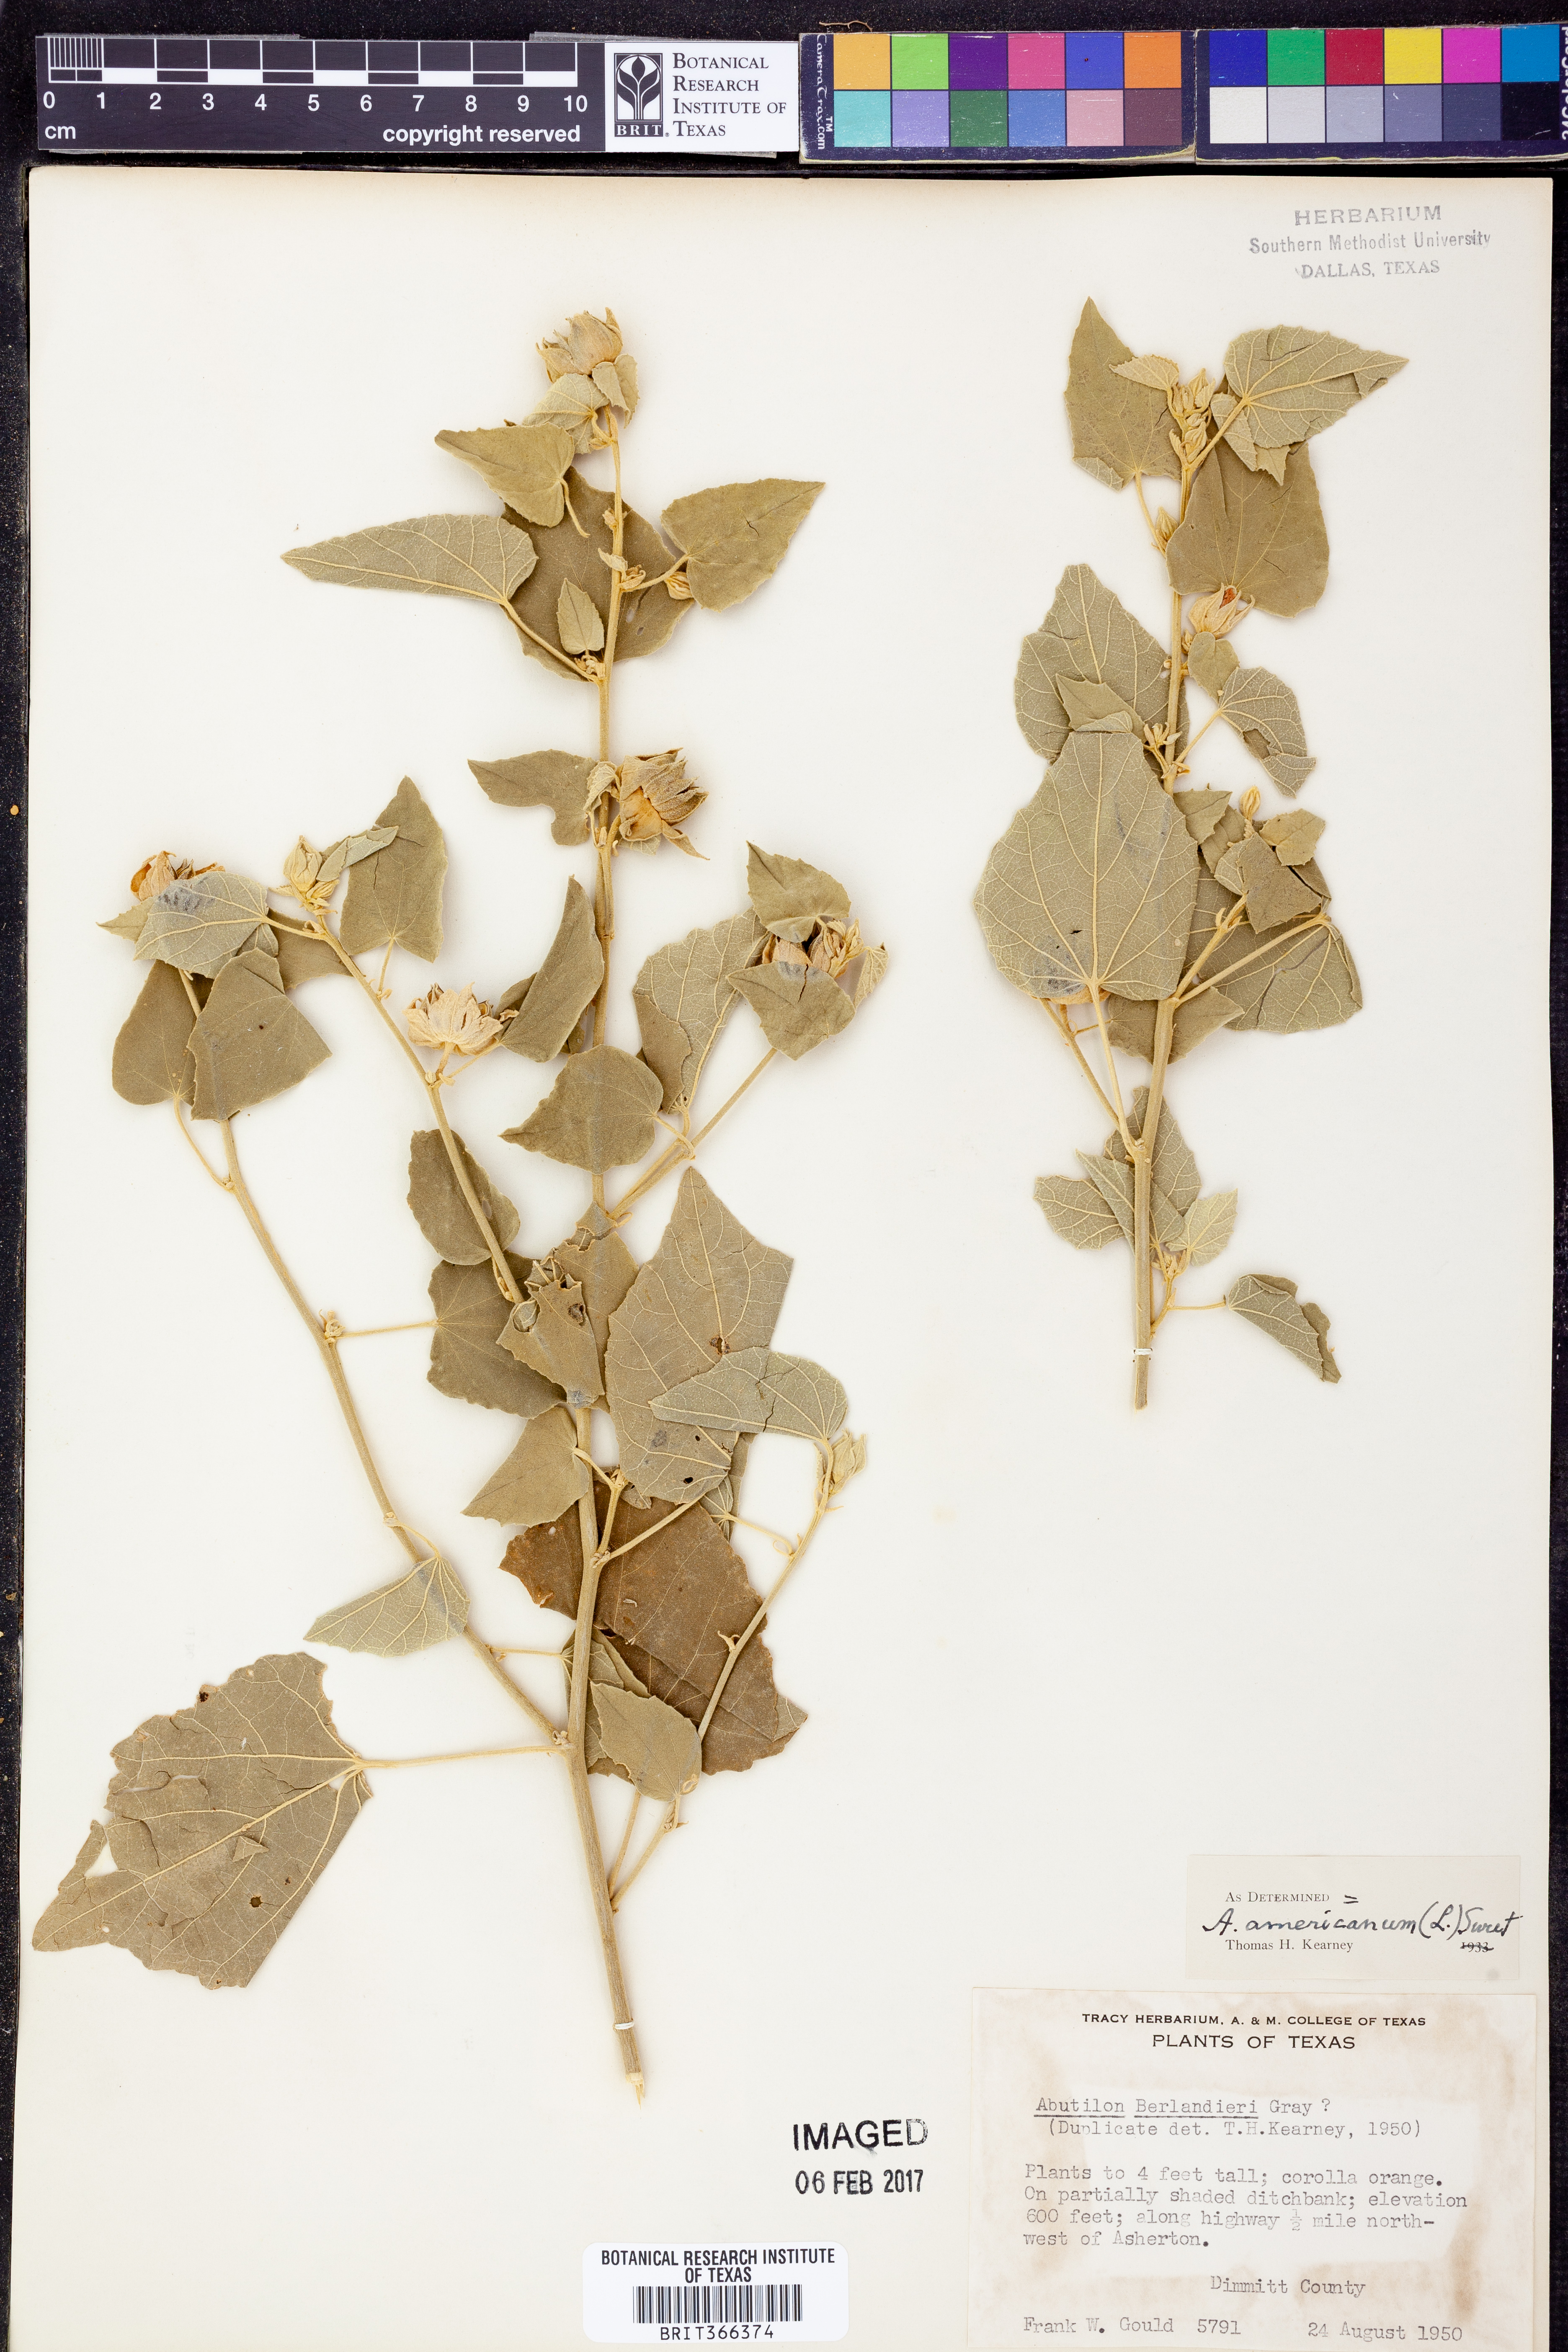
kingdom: Plantae
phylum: Tracheophyta
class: Magnoliopsida
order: Malvales
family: Malvaceae
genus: Abutilon
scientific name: Abutilon abutiloides
